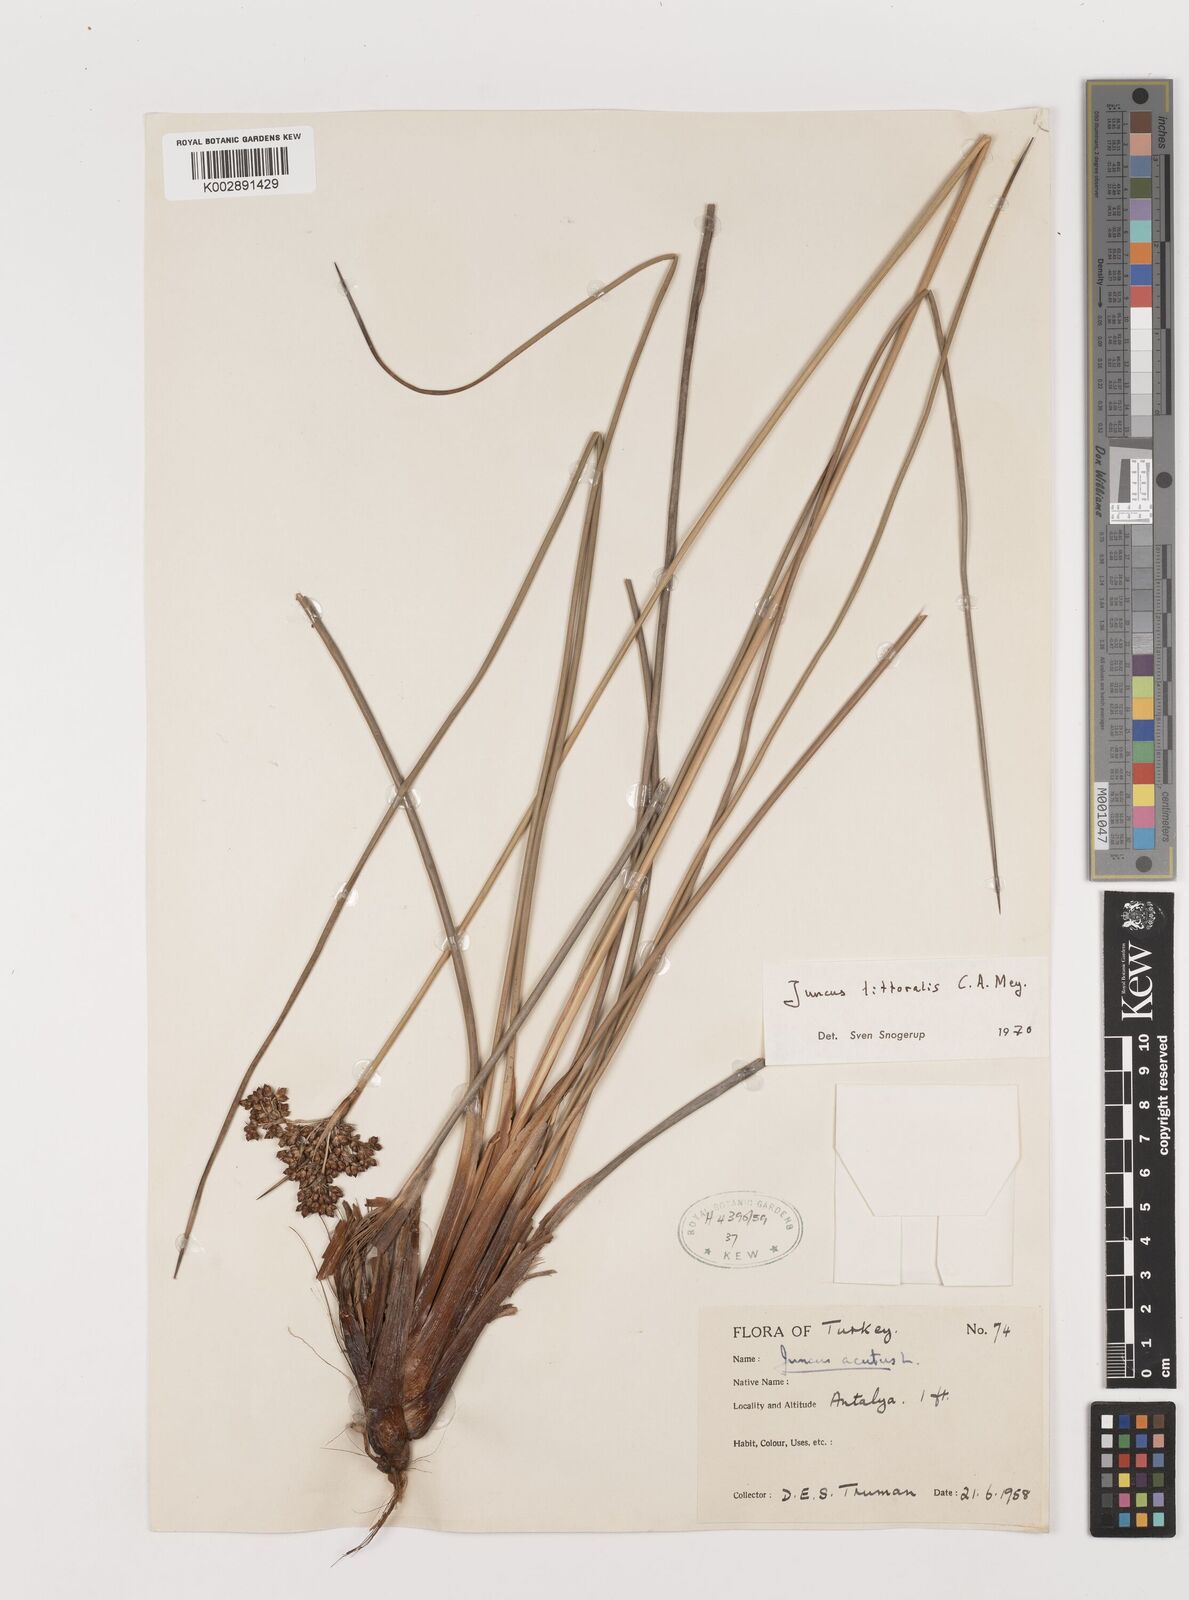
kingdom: Plantae
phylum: Tracheophyta
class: Liliopsida
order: Poales
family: Juncaceae
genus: Juncus
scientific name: Juncus littoralis
